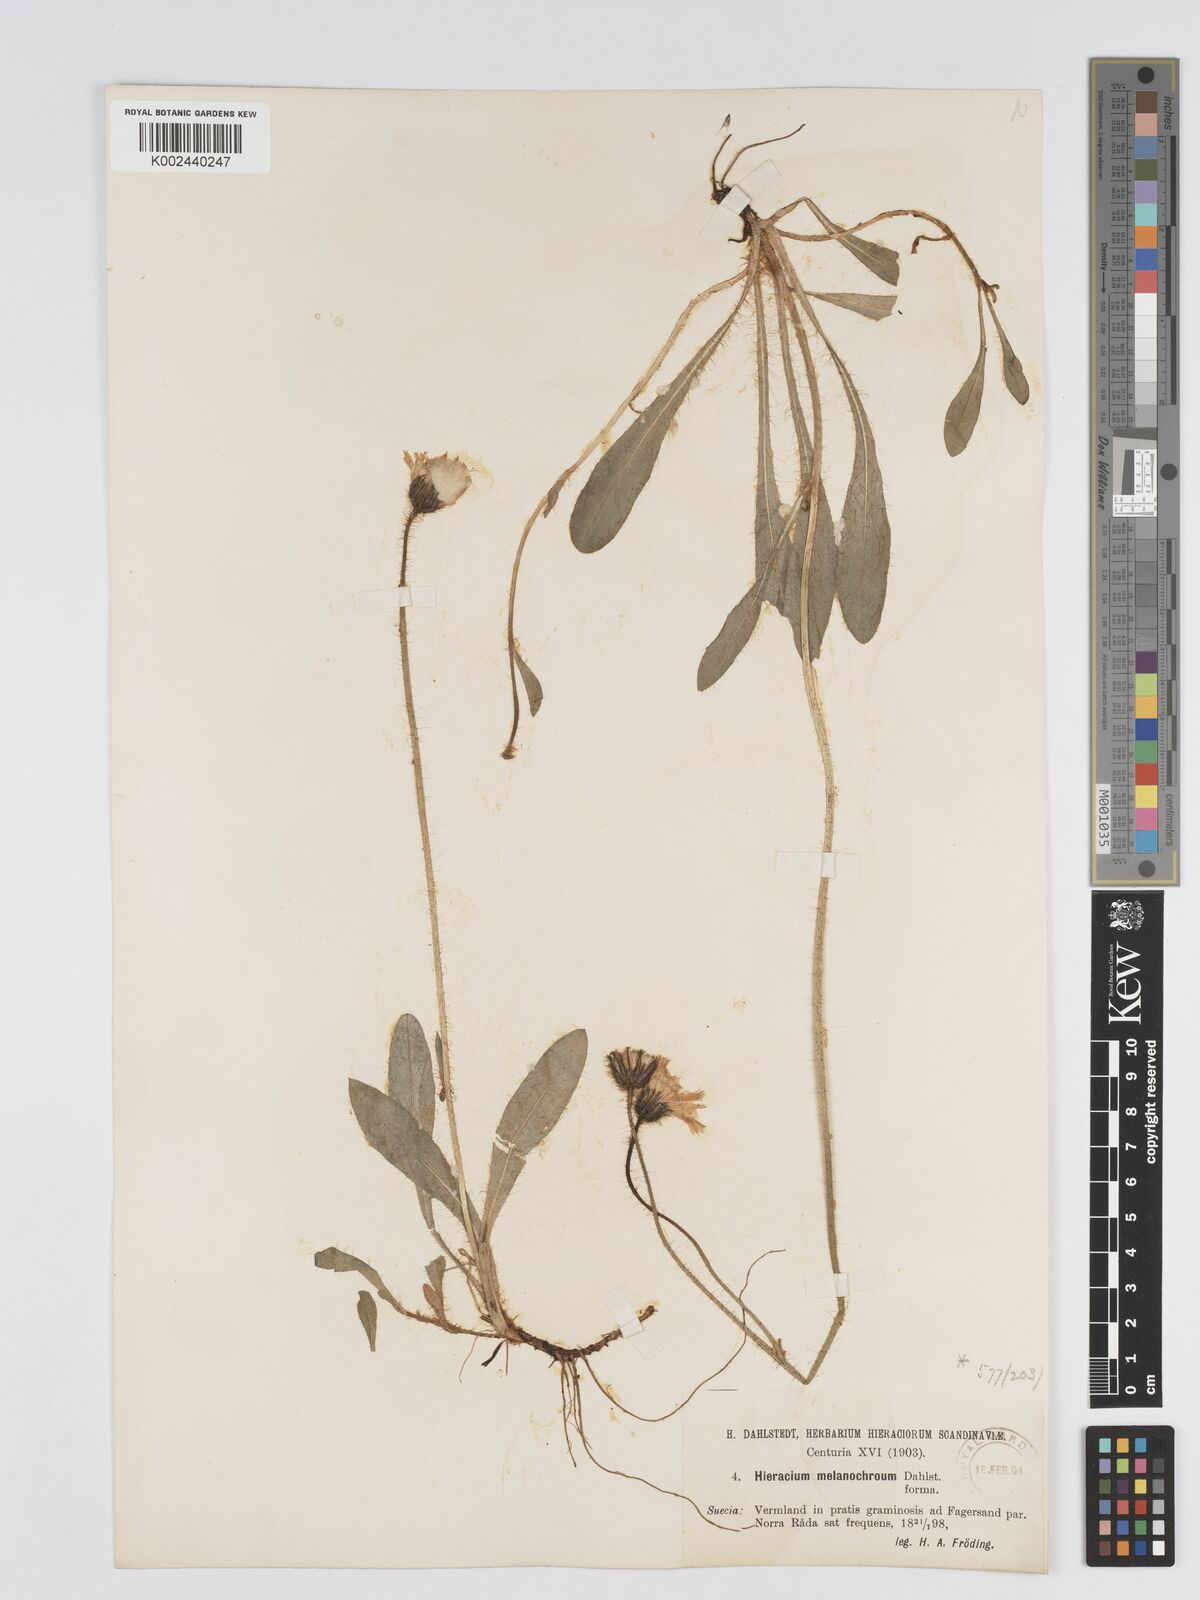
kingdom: Plantae
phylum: Tracheophyta
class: Magnoliopsida
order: Asterales
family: Asteraceae
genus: Pilosella
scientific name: Pilosella officinarum
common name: Mouse-ear hawkweed
